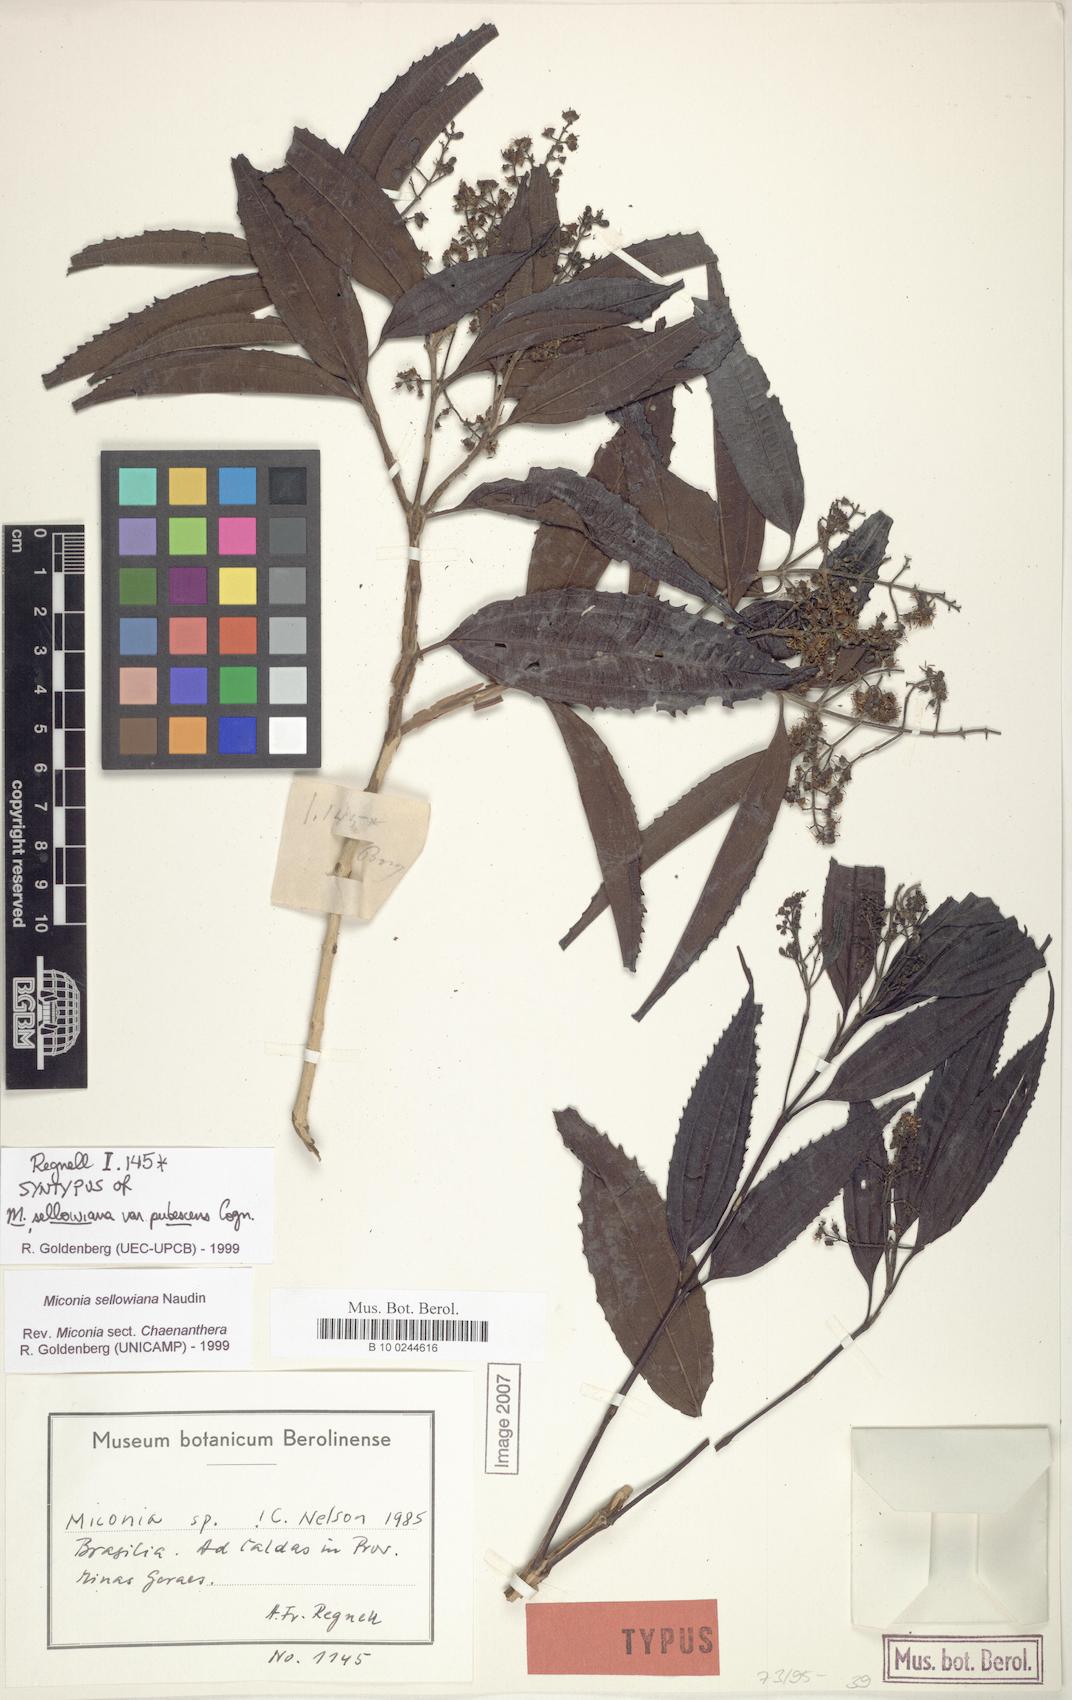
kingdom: Plantae
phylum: Tracheophyta
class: Magnoliopsida
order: Myrtales
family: Melastomataceae
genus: Miconia
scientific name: Miconia sellowiana
